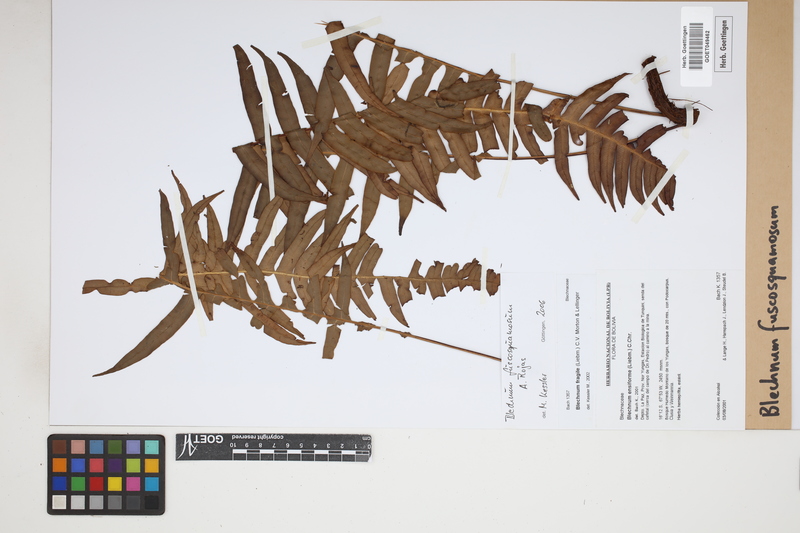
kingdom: Plantae
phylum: Tracheophyta
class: Polypodiopsida
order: Polypodiales
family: Blechnaceae
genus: Lomaridium
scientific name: Lomaridium fuscosquamosum
